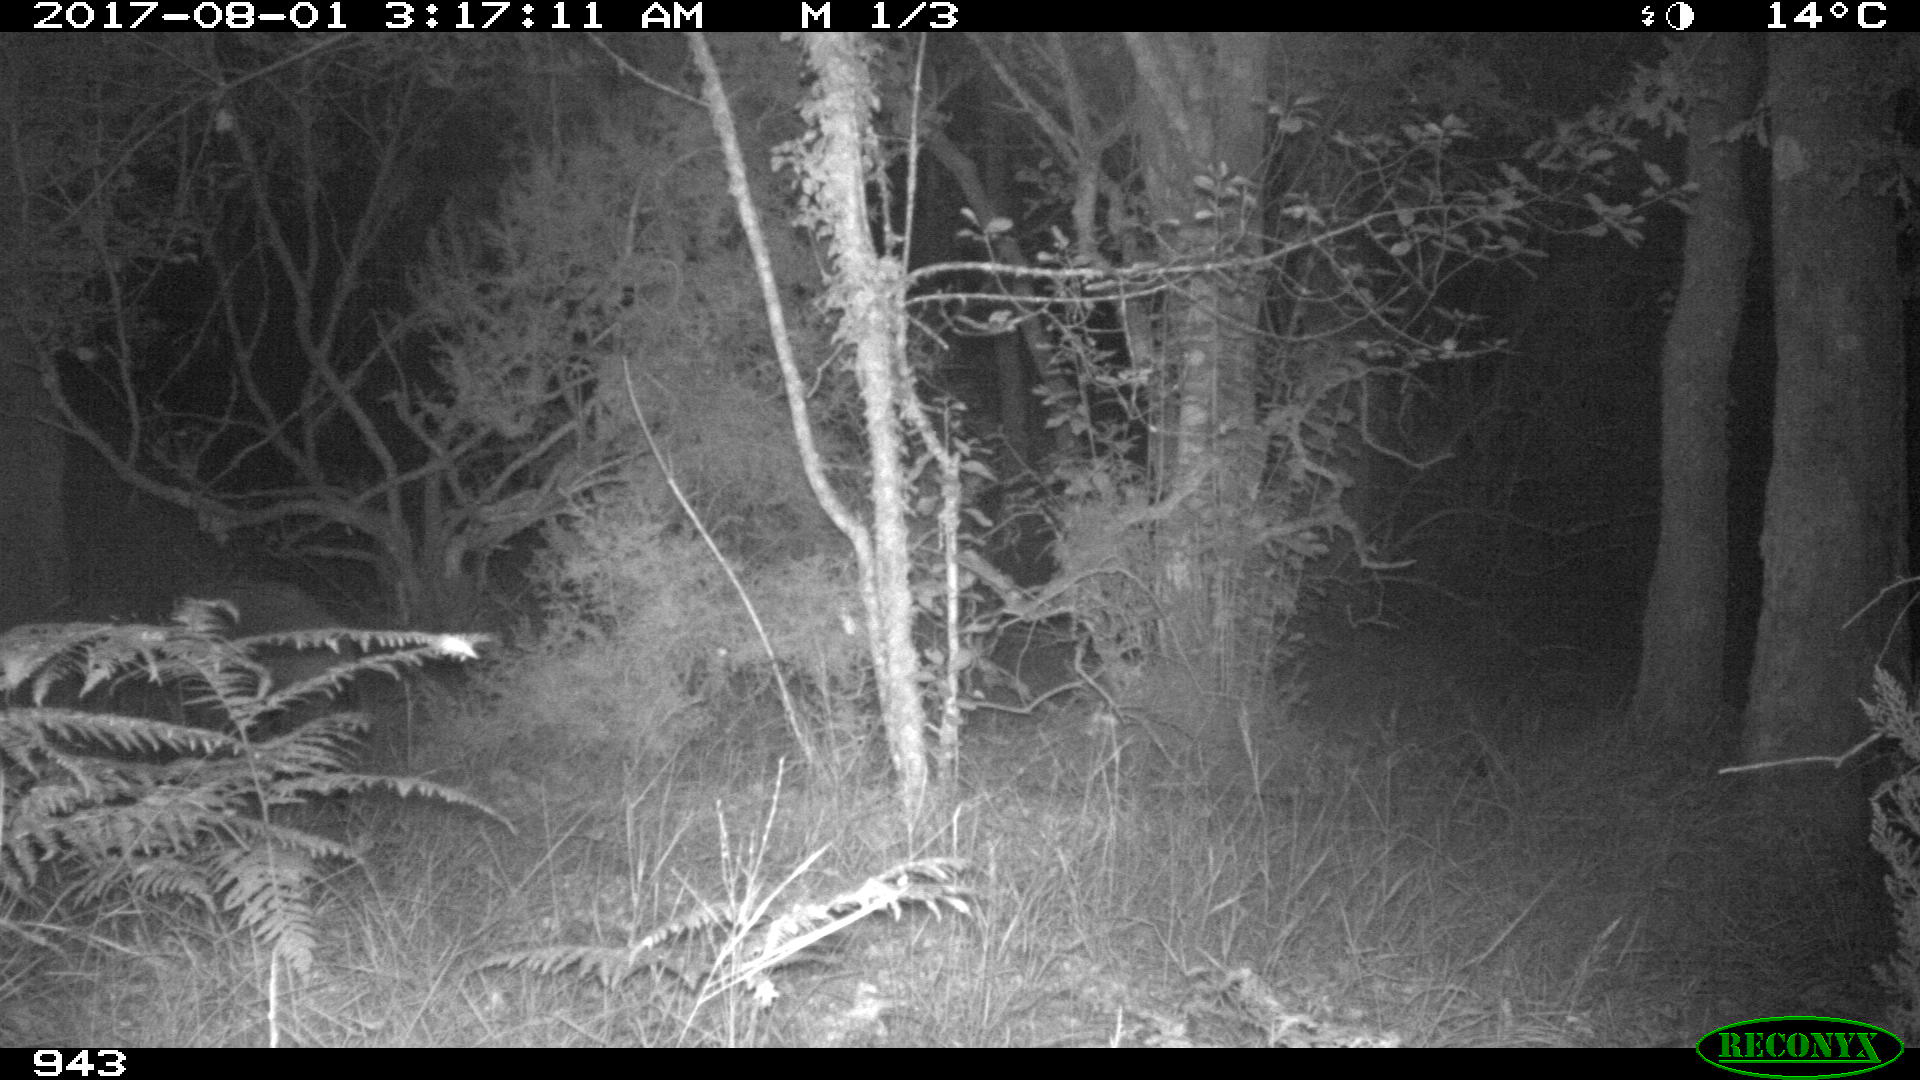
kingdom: Animalia
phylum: Chordata
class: Mammalia
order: Artiodactyla
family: Suidae
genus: Sus
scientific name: Sus scrofa
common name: Wild boar
